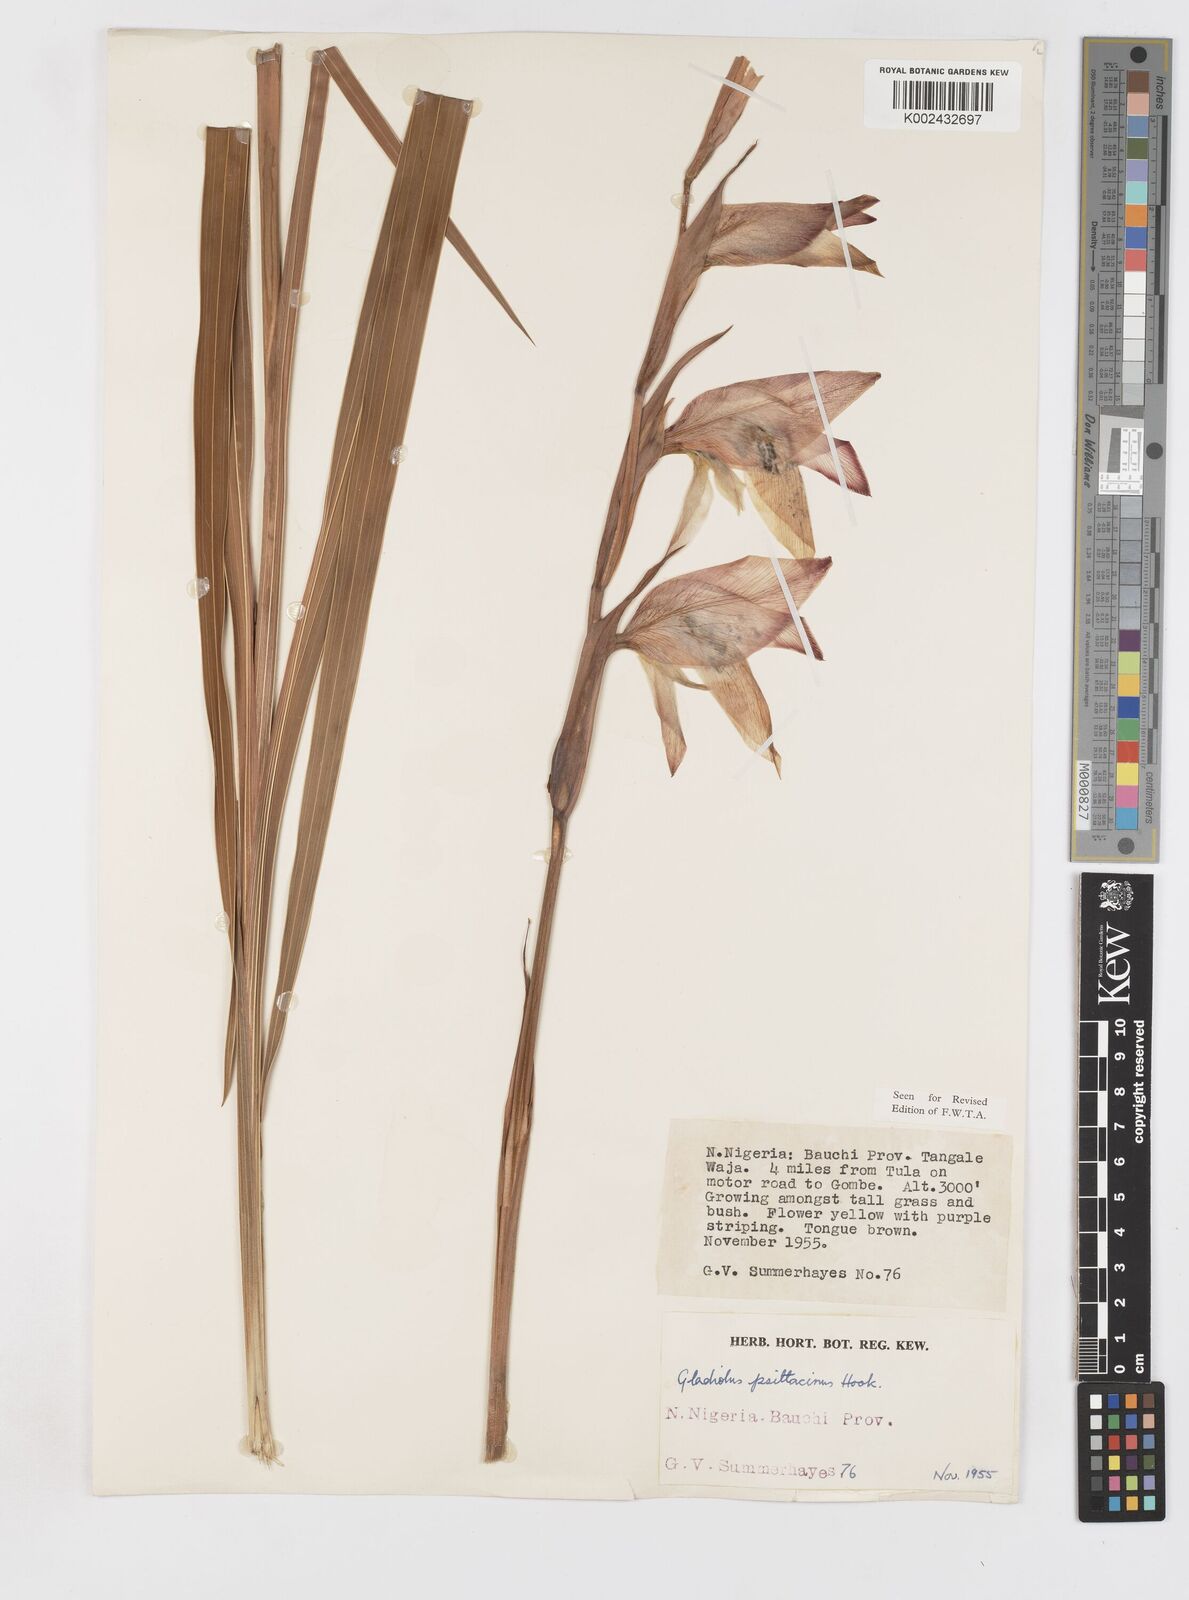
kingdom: Plantae
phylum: Tracheophyta
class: Liliopsida
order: Asparagales
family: Iridaceae
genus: Gladiolus
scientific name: Gladiolus dalenii
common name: Cornflag
